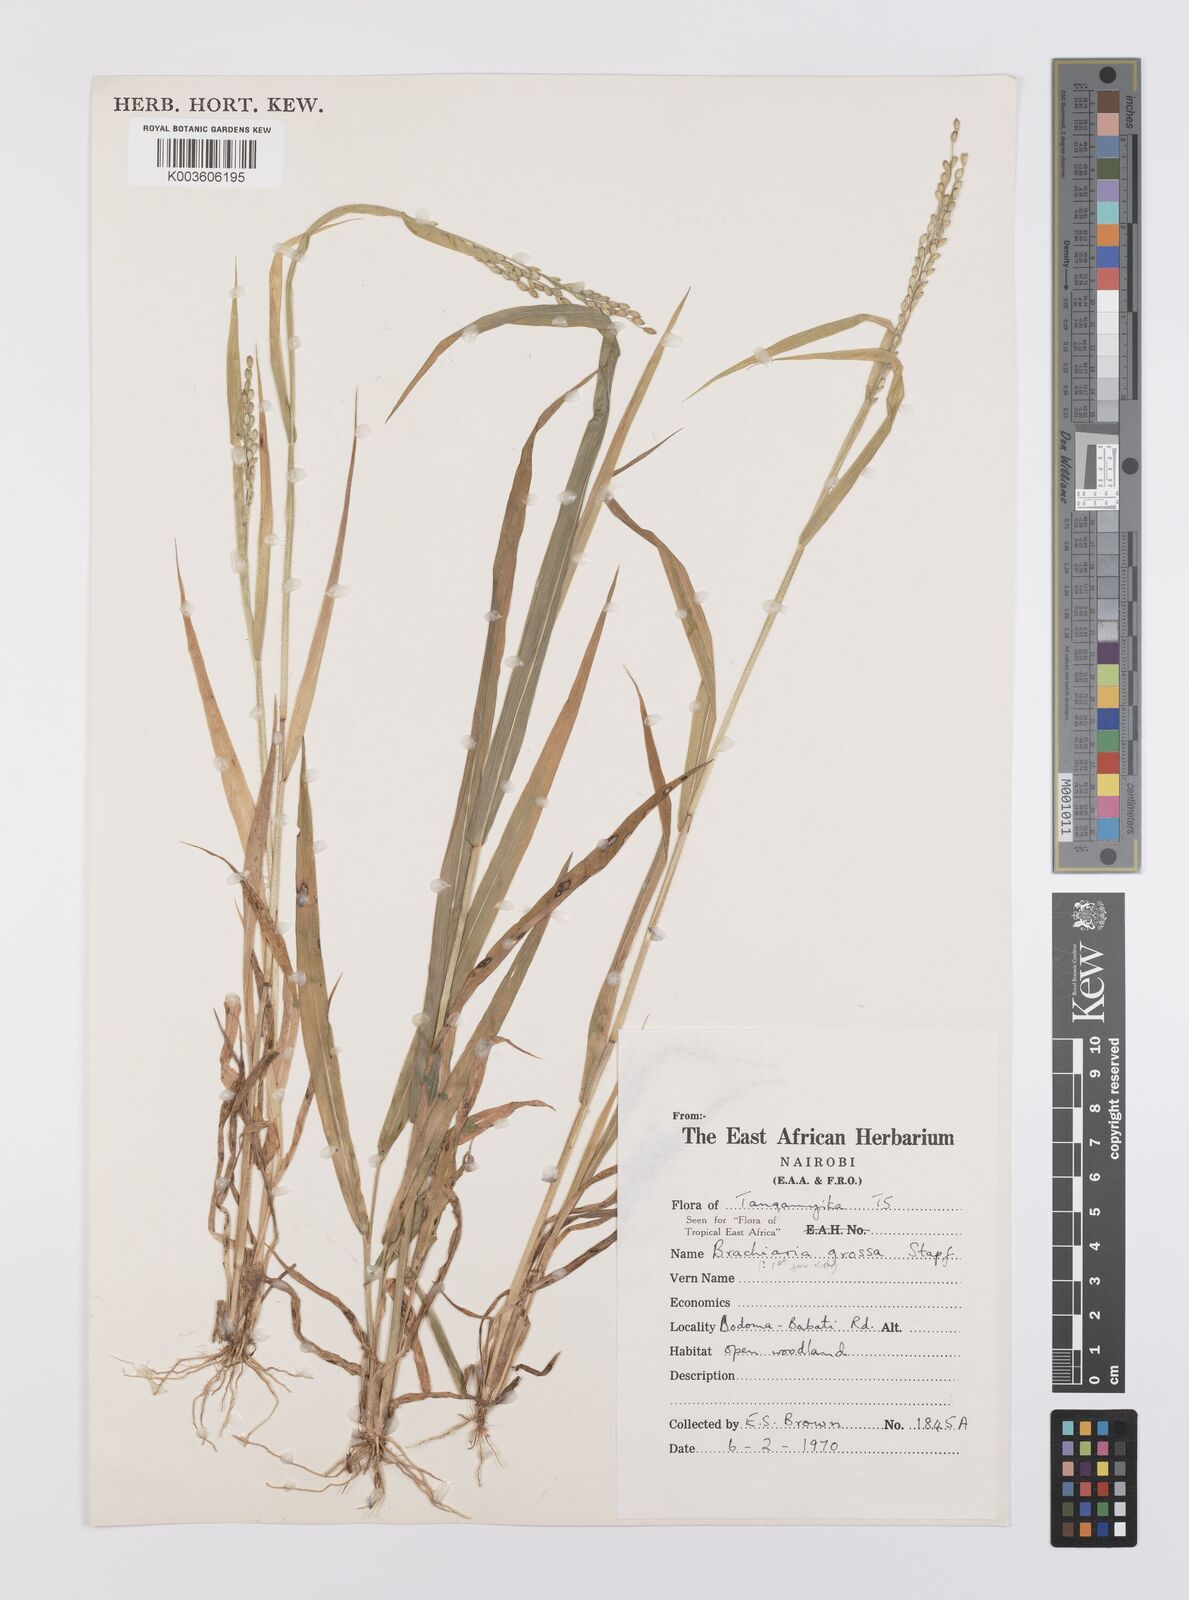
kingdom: Plantae
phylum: Tracheophyta
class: Liliopsida
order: Poales
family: Poaceae
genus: Urochloa
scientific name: Urochloa Brachiaria grossa
